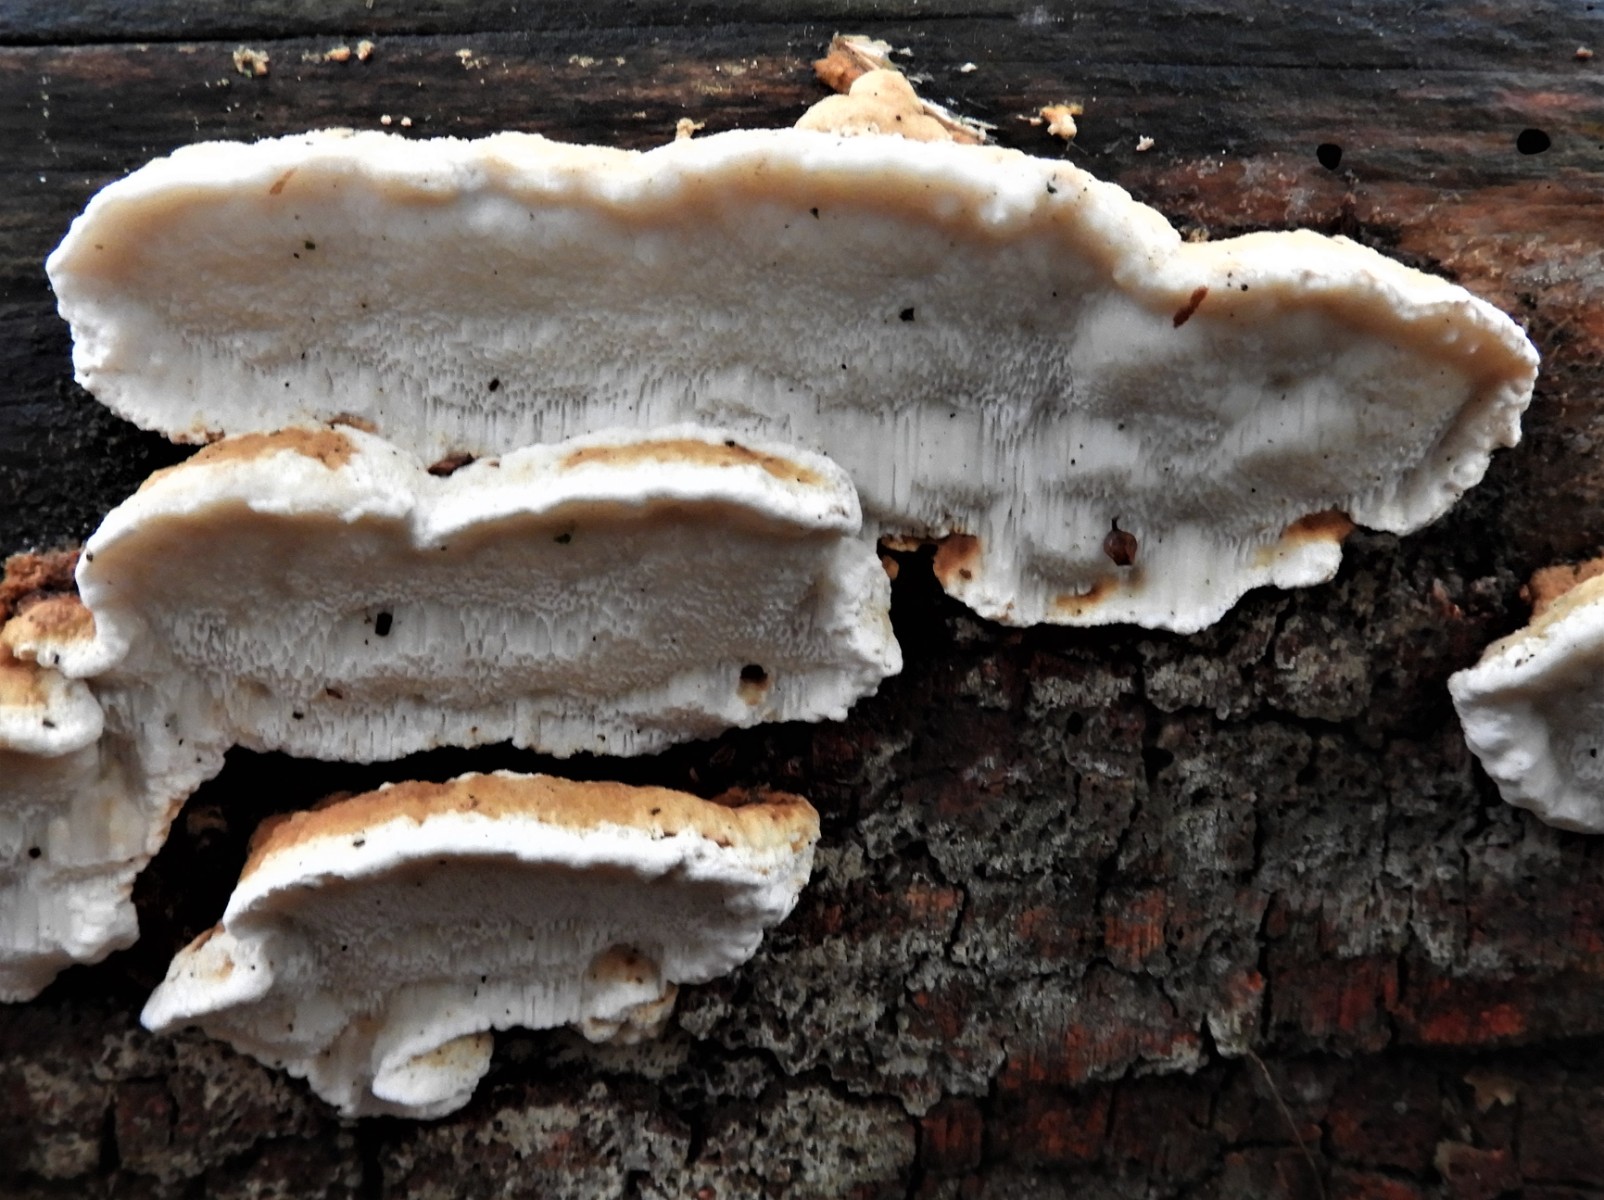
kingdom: Fungi
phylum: Basidiomycota
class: Agaricomycetes
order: Polyporales
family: Fomitopsidaceae
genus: Neoantrodia
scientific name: Neoantrodia serialis
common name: række-sejporesvamp
